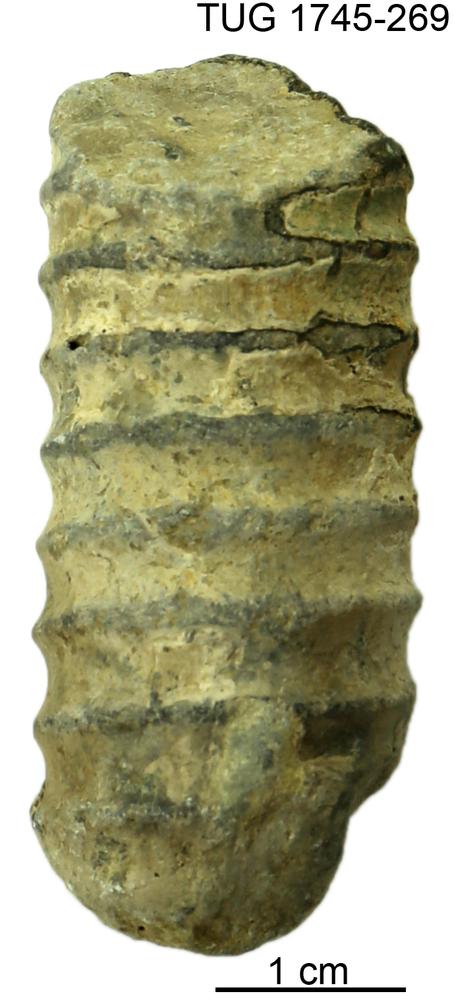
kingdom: Animalia
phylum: Mollusca
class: Cephalopoda
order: Orthocerida
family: Dawsonoceratidae
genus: Palaeodawsonocerina
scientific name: Palaeodawsonocerina Spyroceras senckenbergi
